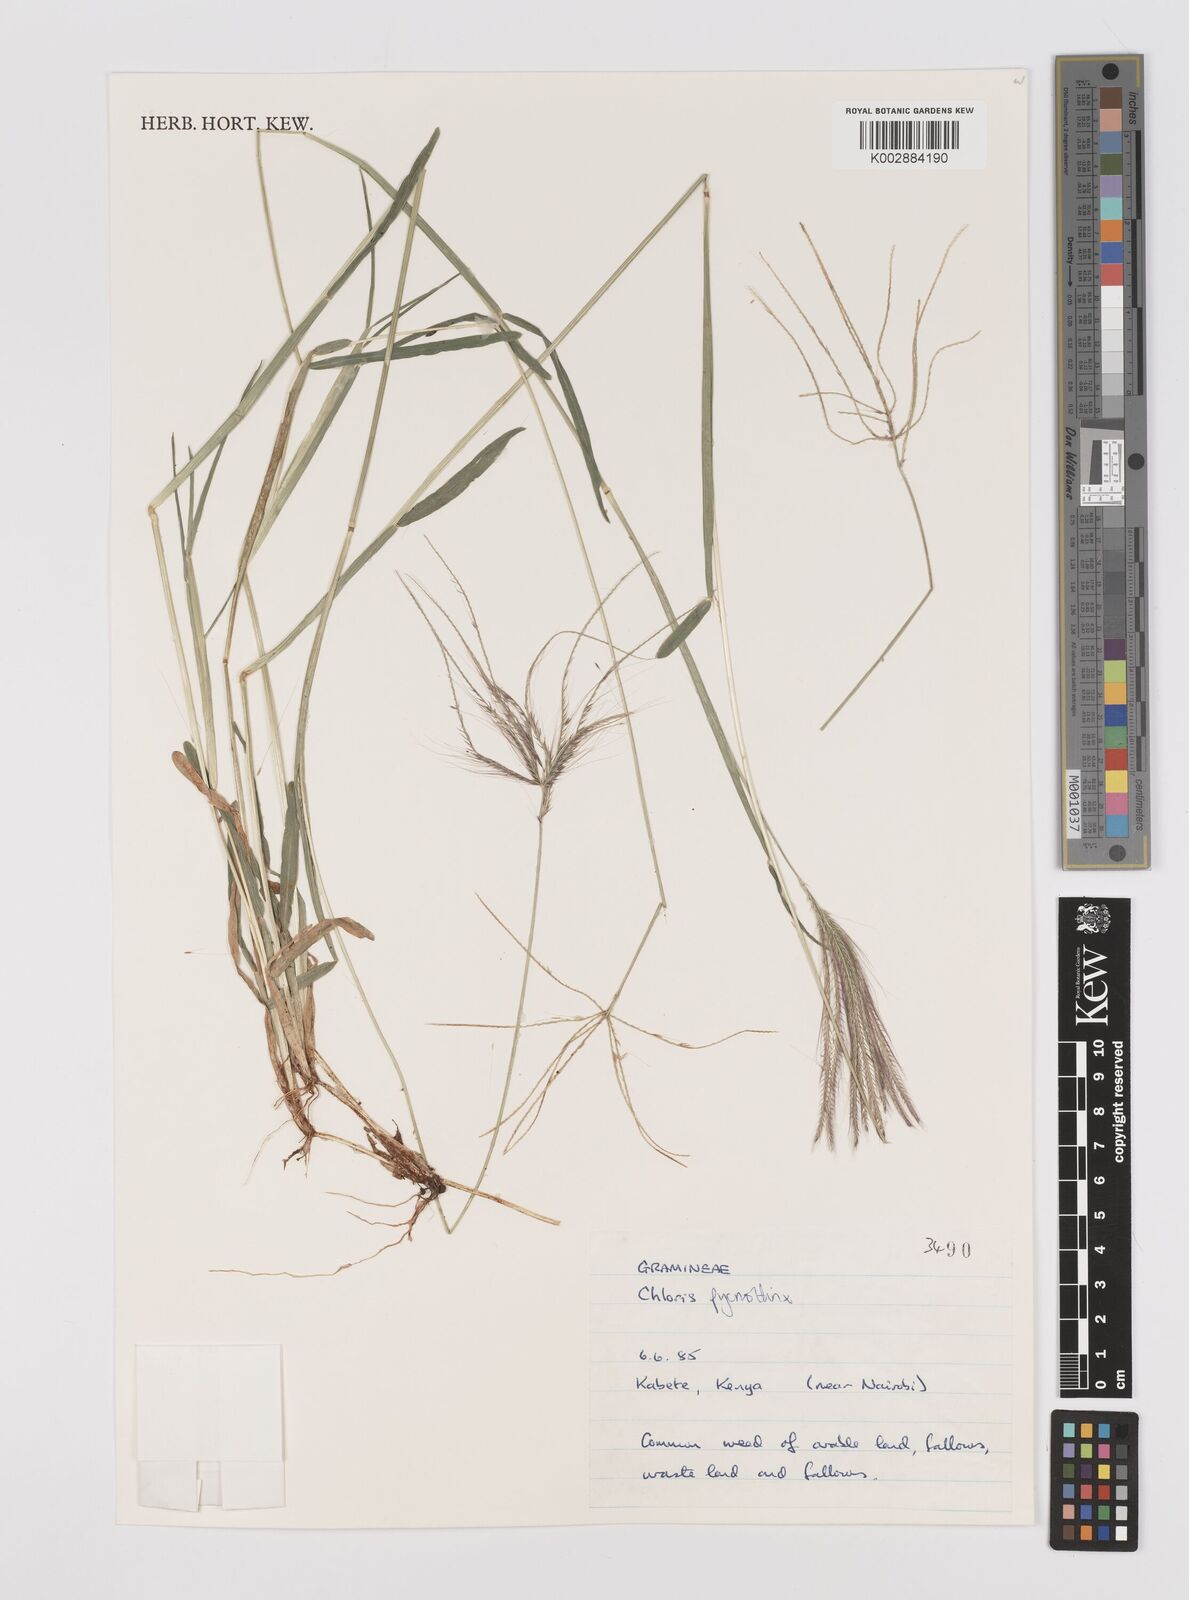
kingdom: Plantae
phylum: Tracheophyta
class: Liliopsida
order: Poales
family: Poaceae
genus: Chloris
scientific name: Chloris pycnothrix
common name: Spiderweb chloris
